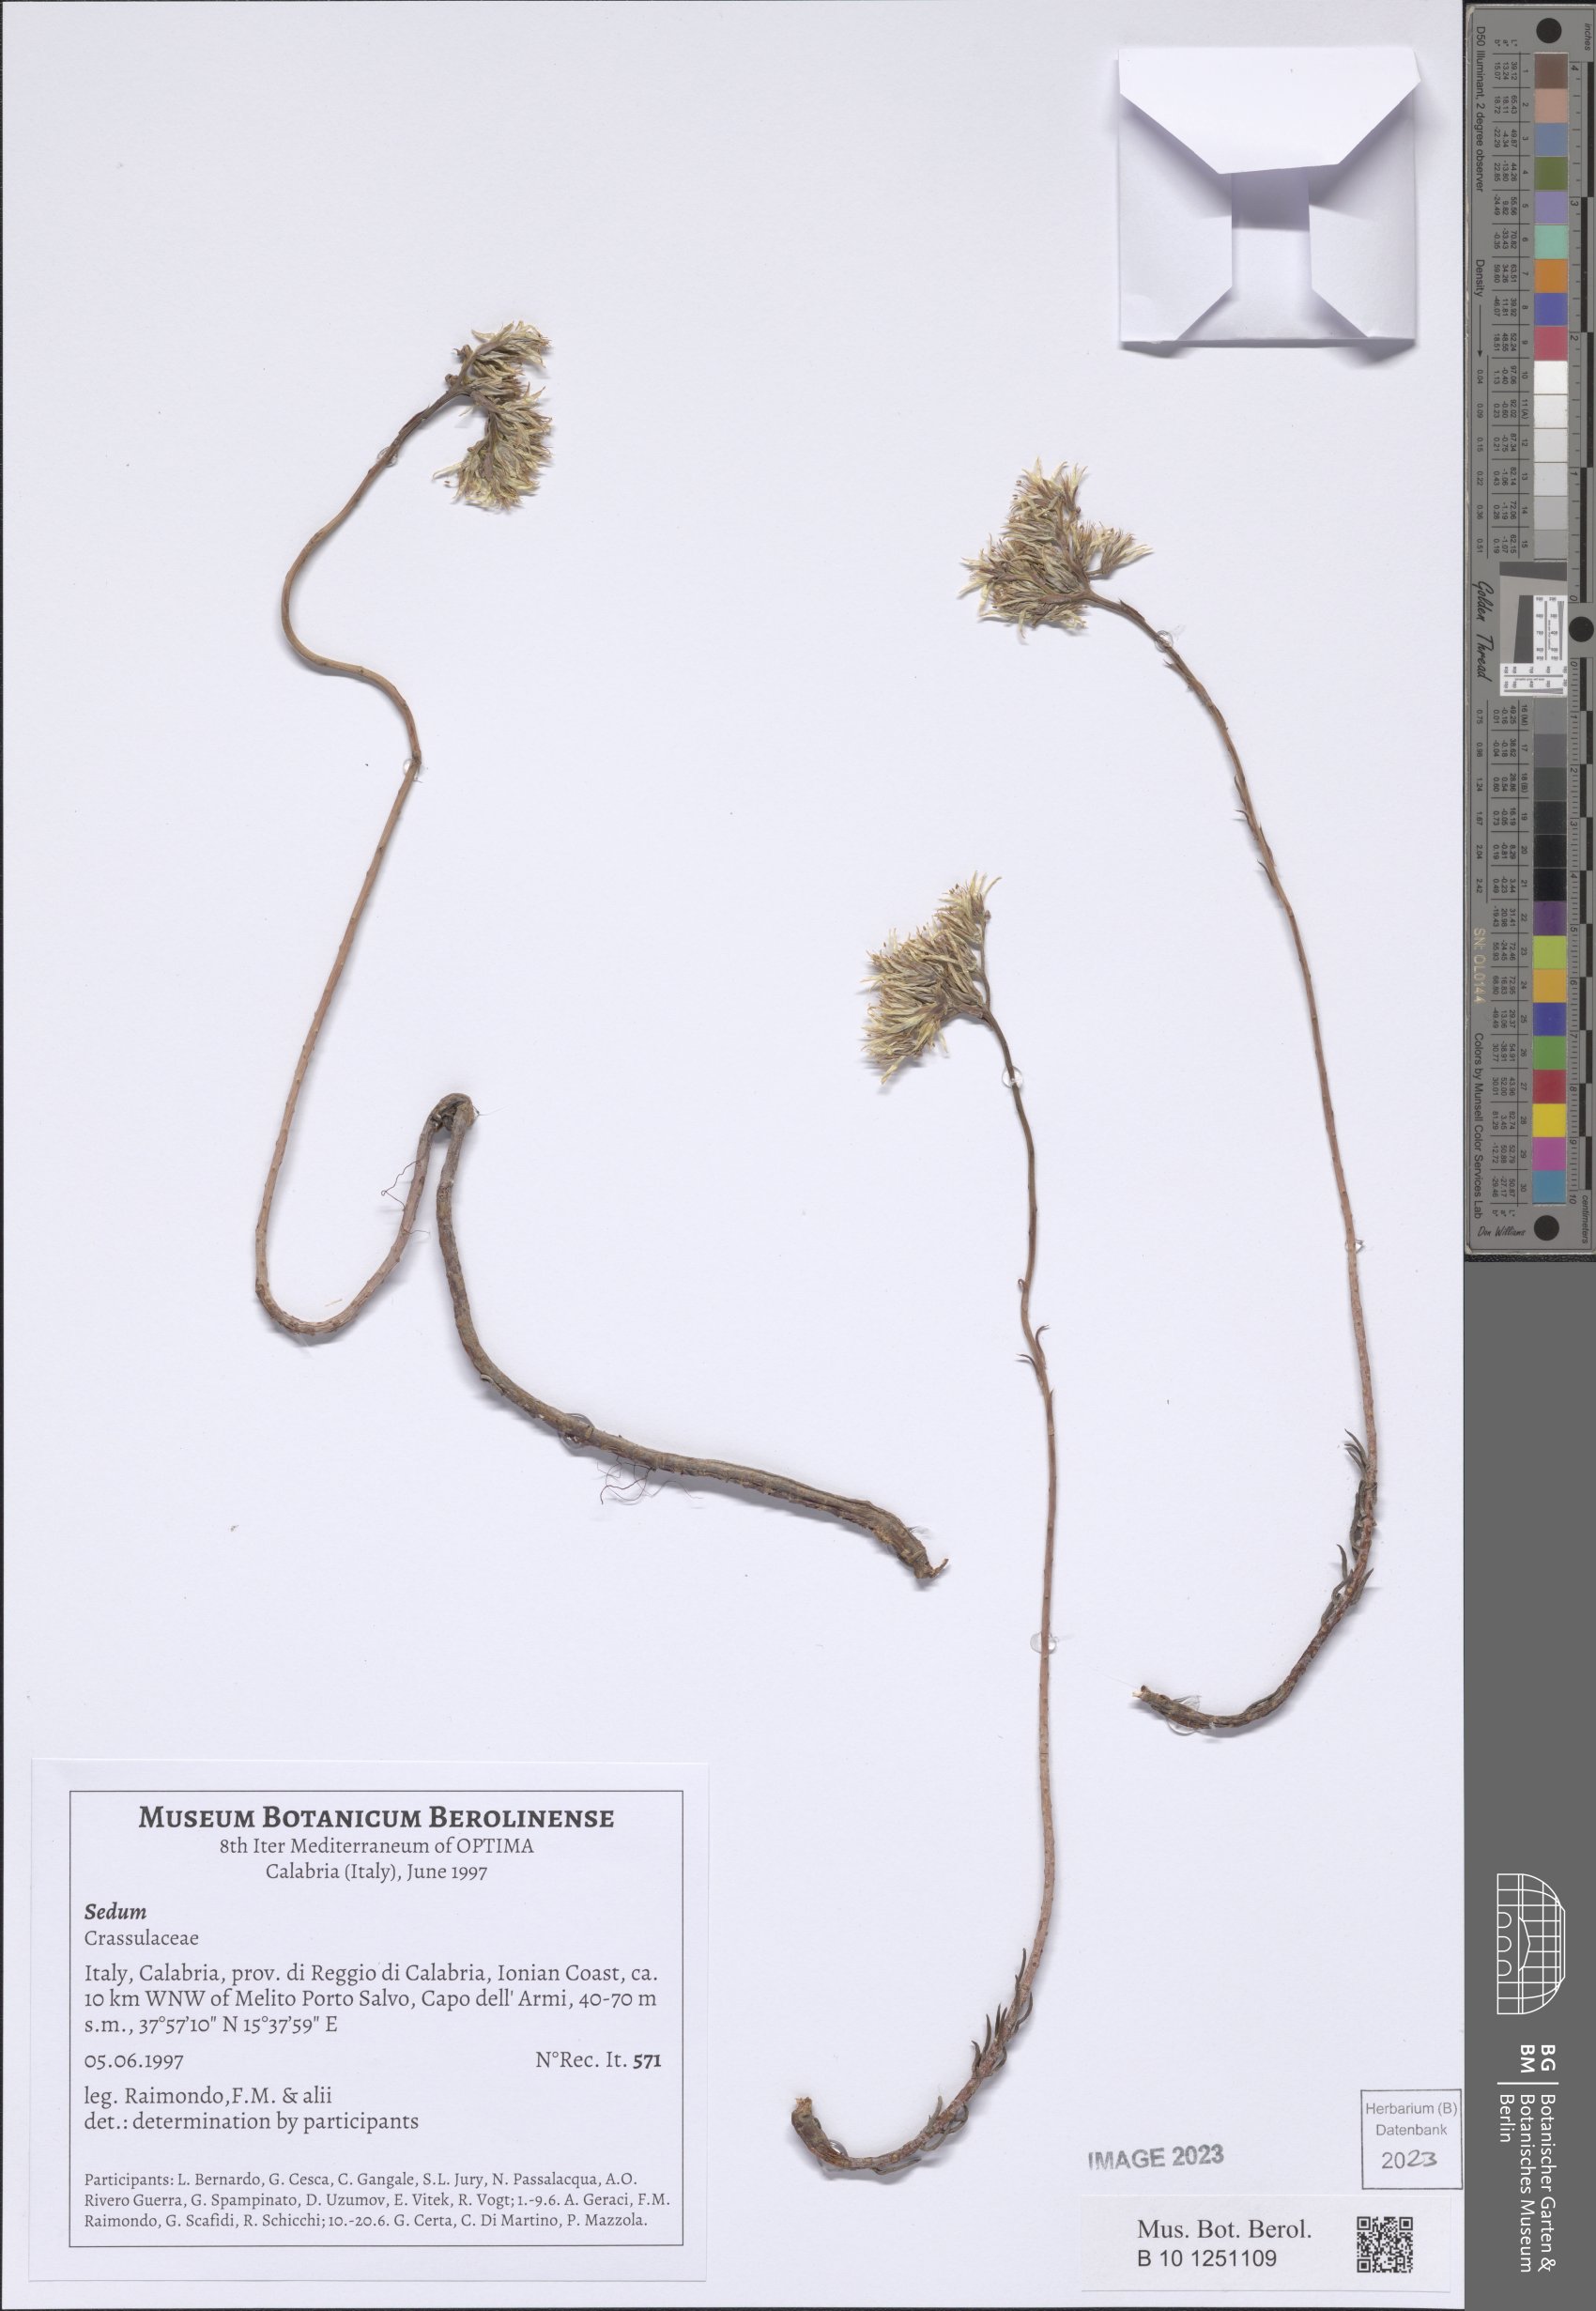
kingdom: Plantae
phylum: Tracheophyta
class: Magnoliopsida
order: Saxifragales
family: Crassulaceae
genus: Sedum
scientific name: Sedum
